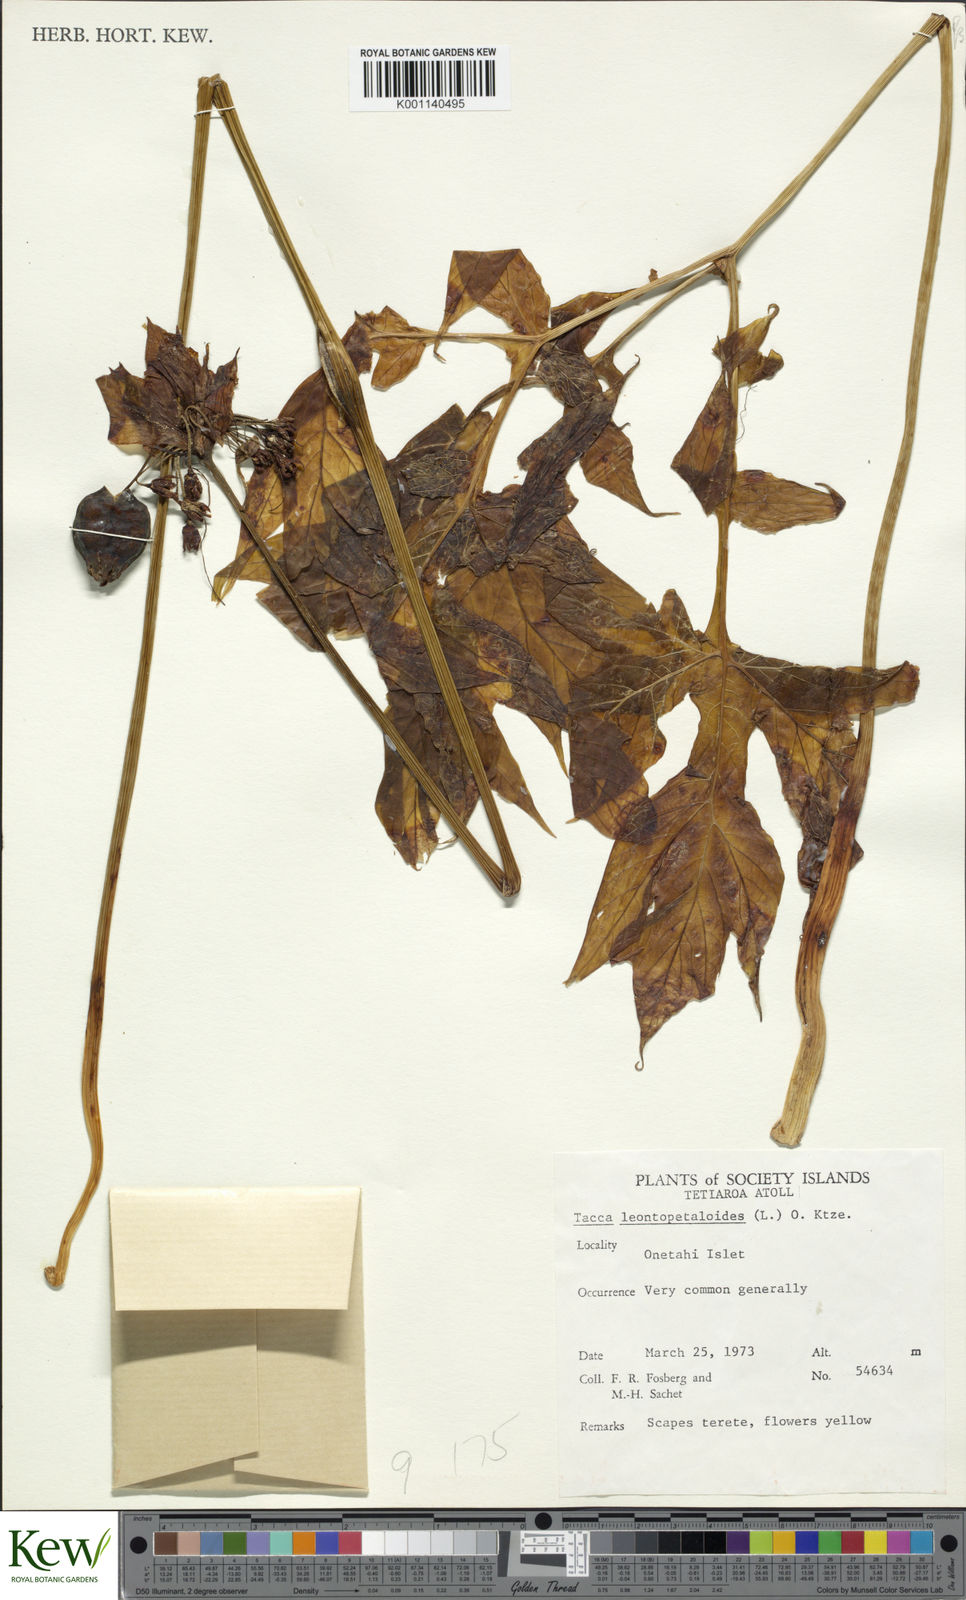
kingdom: Plantae
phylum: Tracheophyta
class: Liliopsida
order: Dioscoreales
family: Dioscoreaceae
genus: Tacca
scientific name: Tacca leontopetaloides
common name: Arrowroot
